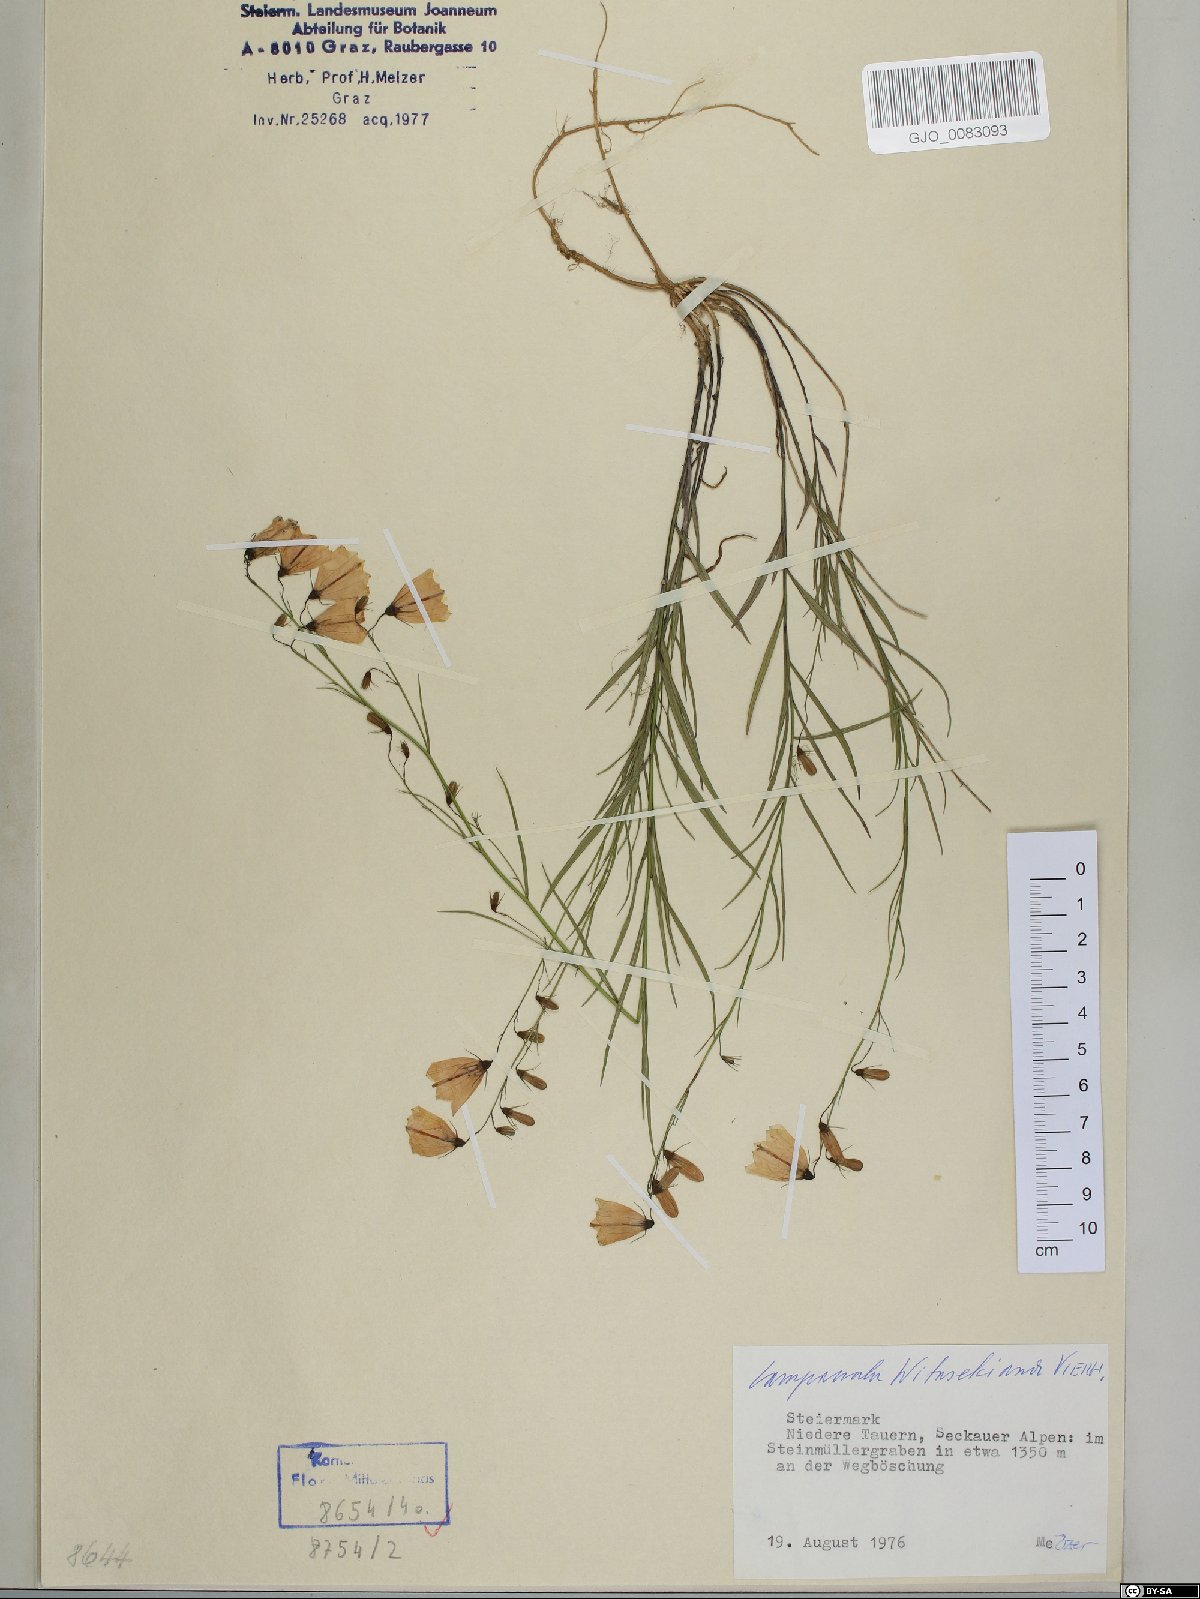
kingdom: Plantae
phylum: Tracheophyta
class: Magnoliopsida
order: Asterales
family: Campanulaceae
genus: Campanula
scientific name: Campanula witasekiana
